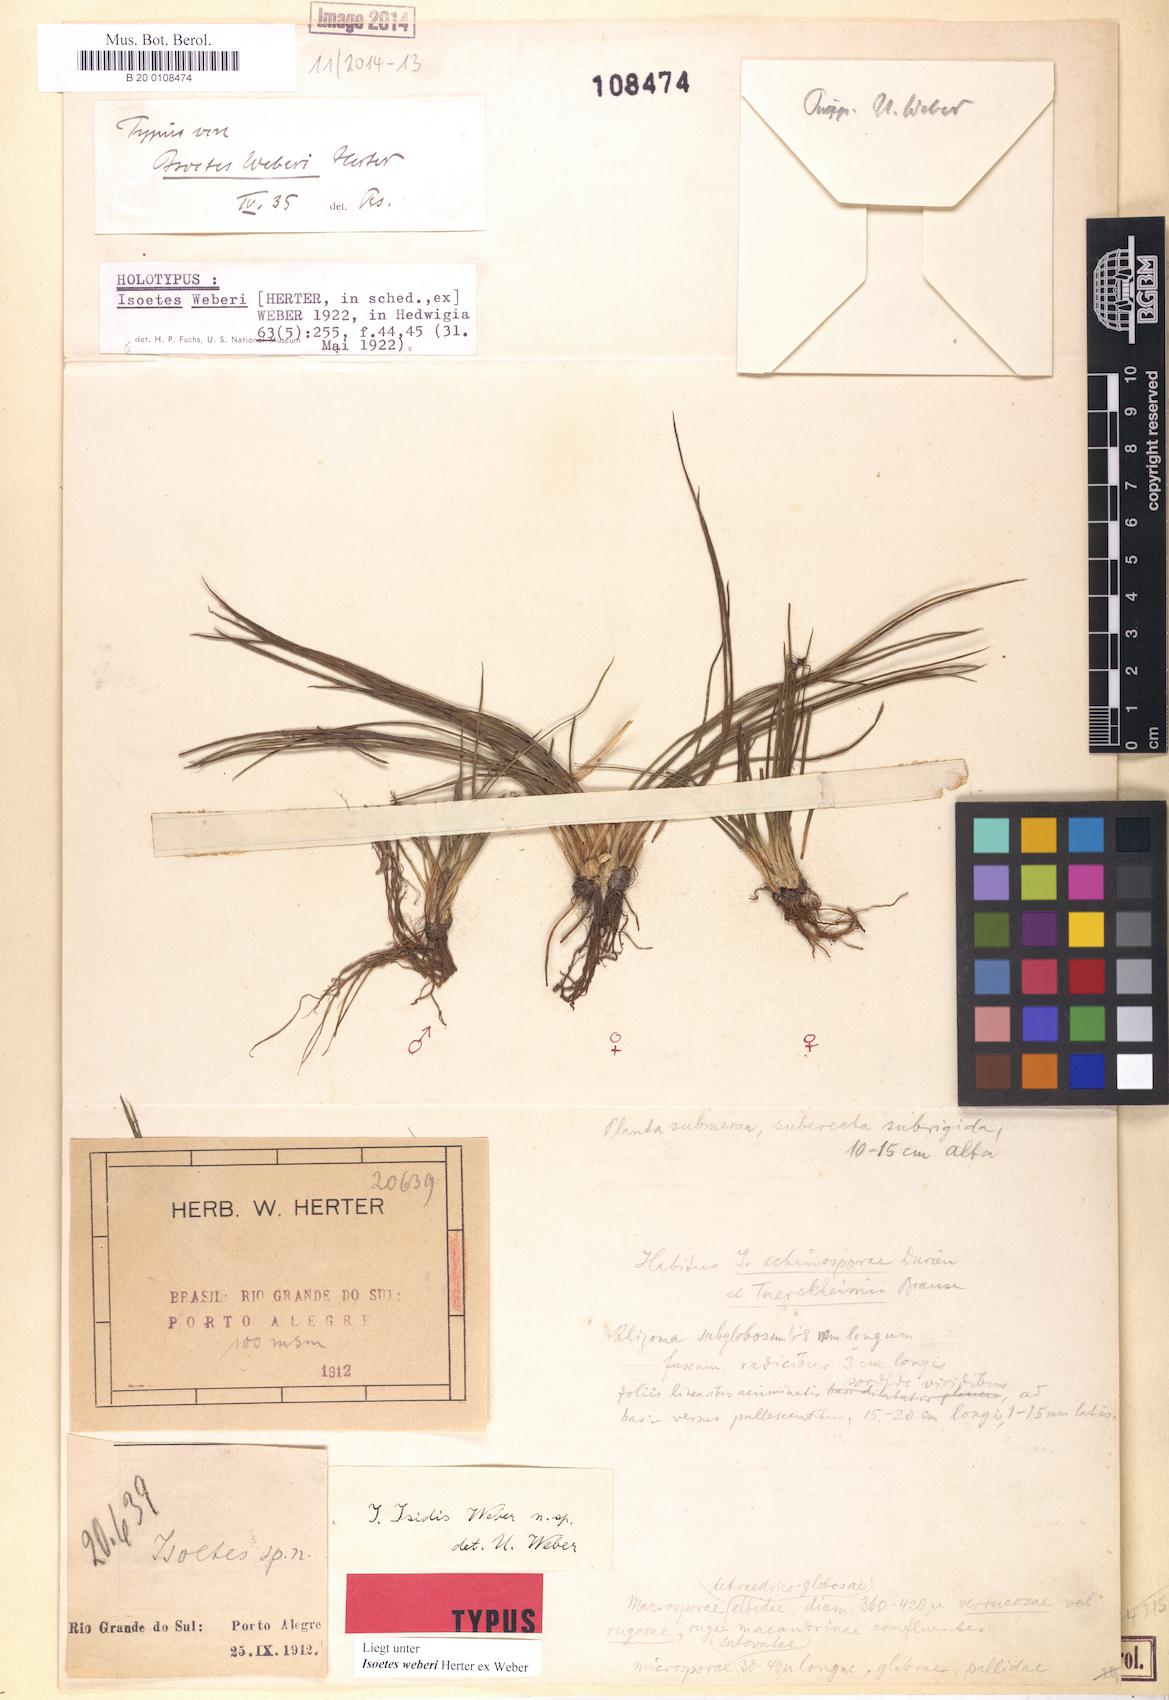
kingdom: Plantae
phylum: Tracheophyta
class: Lycopodiopsida
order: Isoetales
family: Isoetaceae
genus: Isoetes
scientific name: Isoetes weberi
